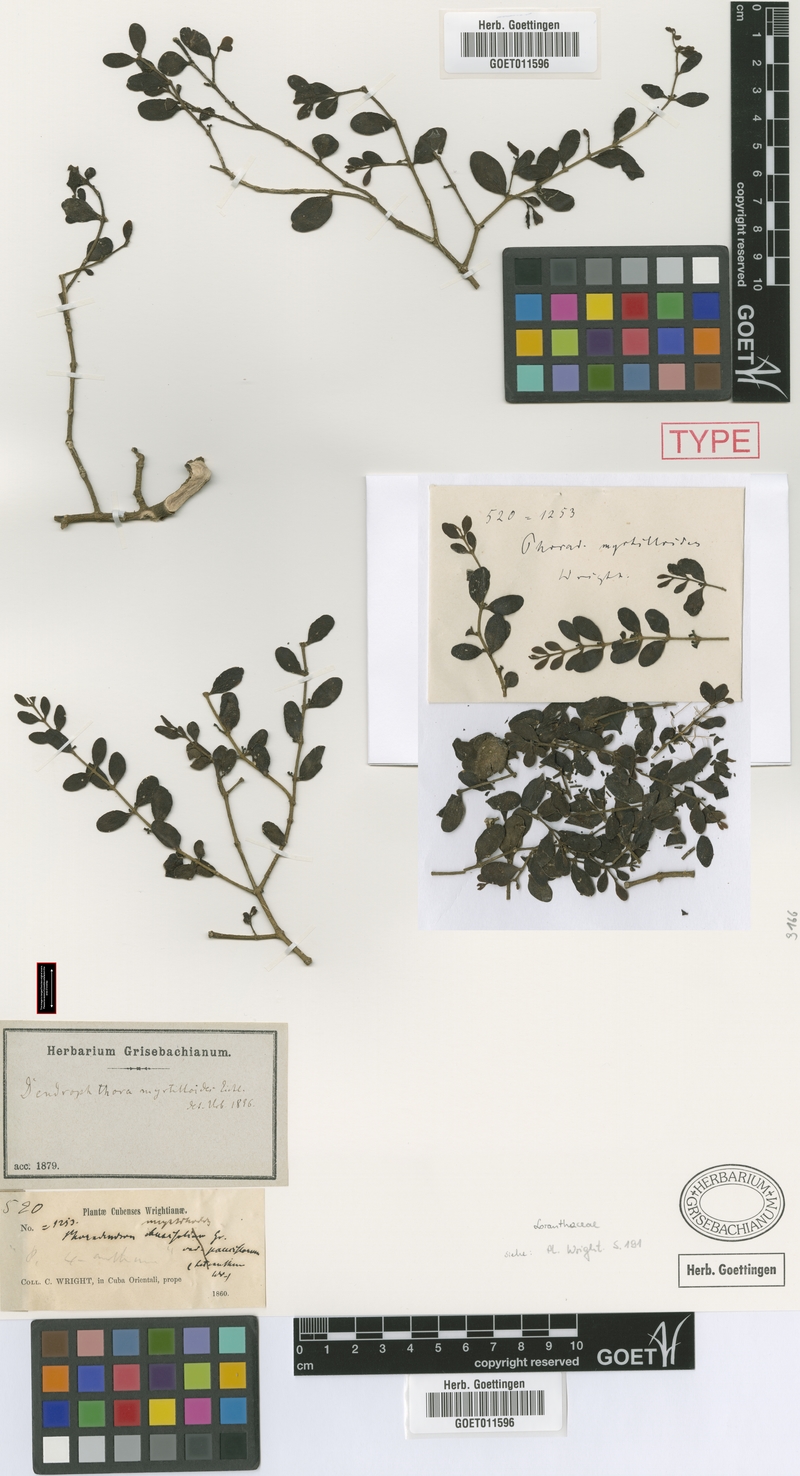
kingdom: Plantae
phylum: Tracheophyta
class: Magnoliopsida
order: Santalales
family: Viscaceae
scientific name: Viscaceae
